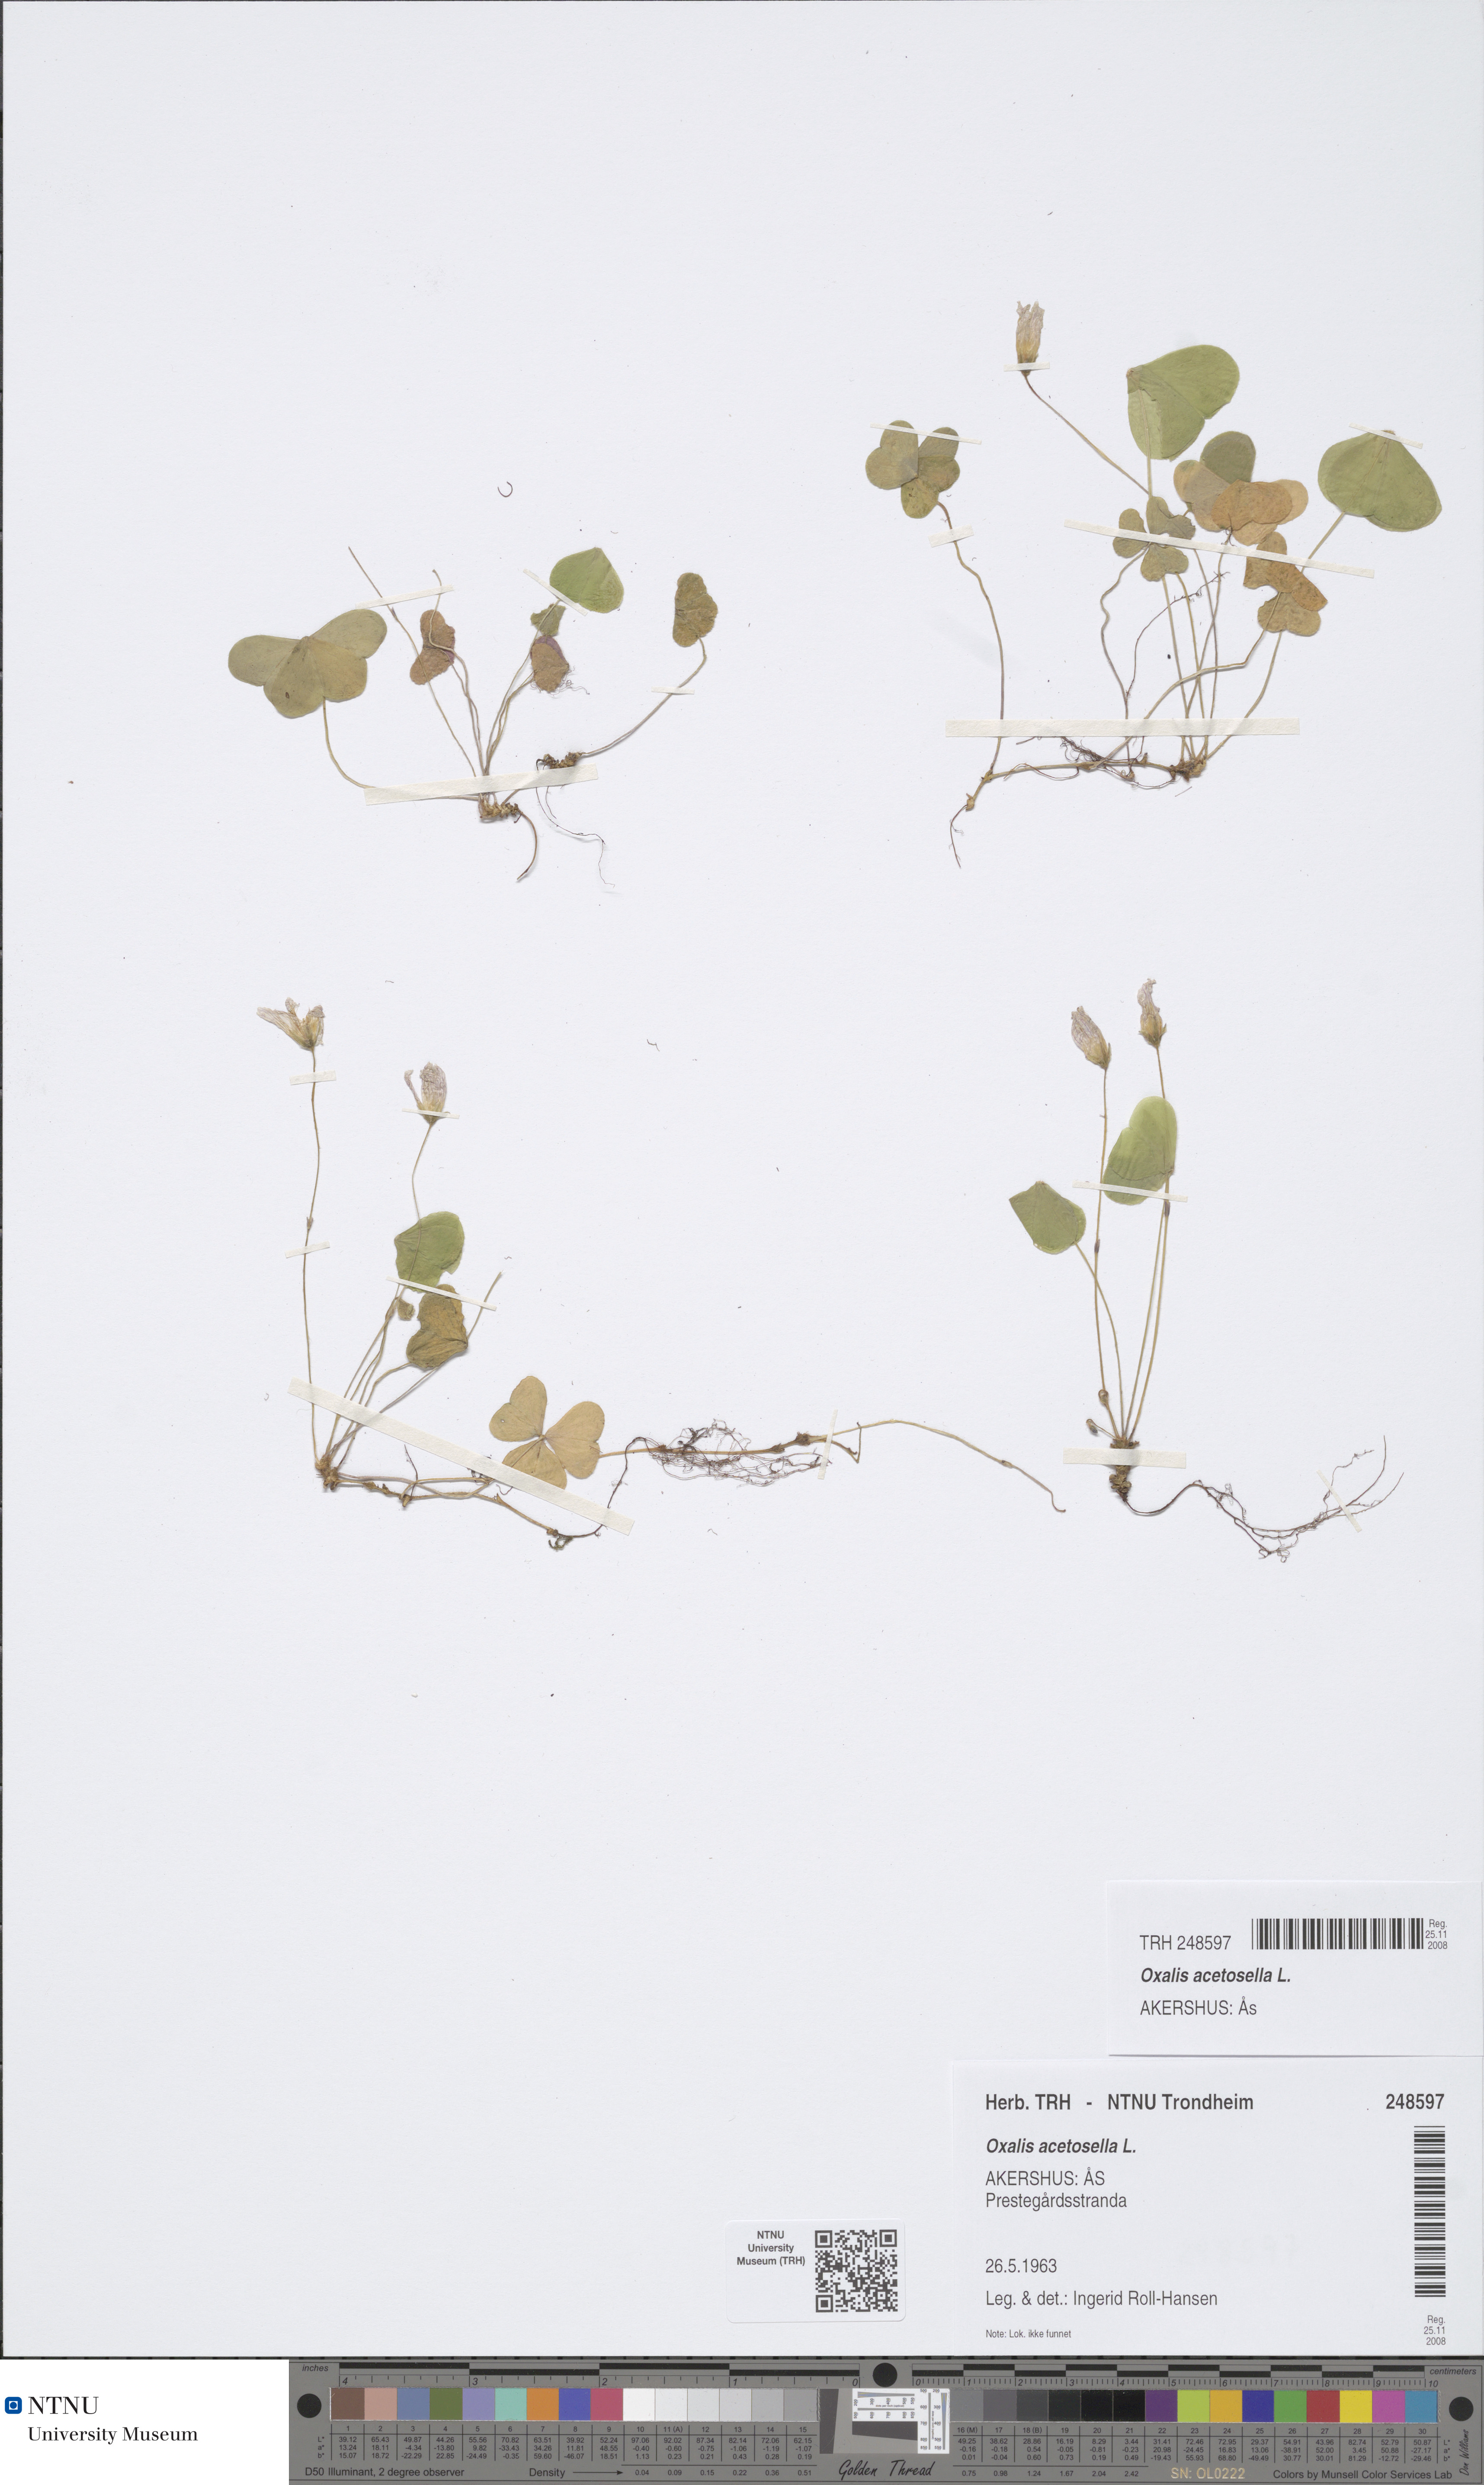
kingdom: Plantae
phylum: Tracheophyta
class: Magnoliopsida
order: Oxalidales
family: Oxalidaceae
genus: Oxalis
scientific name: Oxalis acetosella
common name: Wood-sorrel
